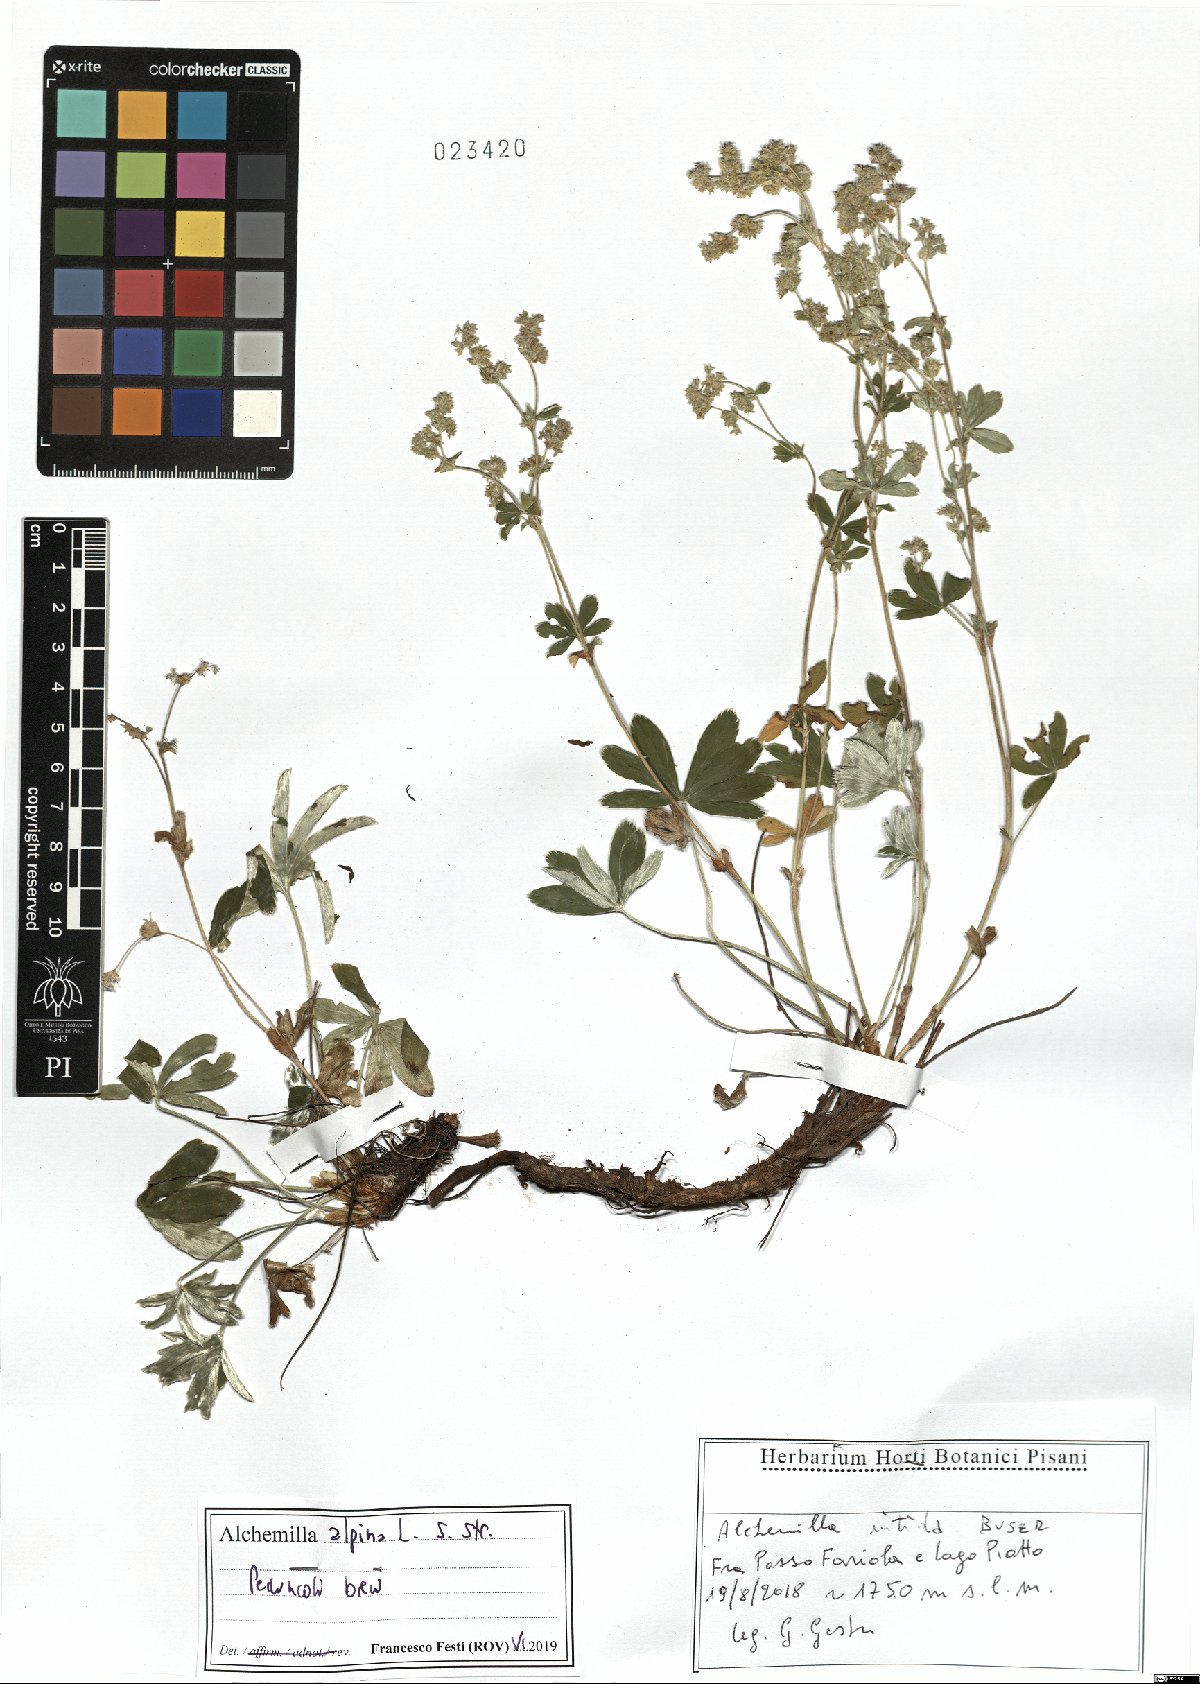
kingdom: Plantae
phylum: Tracheophyta
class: Magnoliopsida
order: Rosales
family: Rosaceae
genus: Alchemilla
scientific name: Alchemilla alpina
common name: Alpine lady's-mantle
